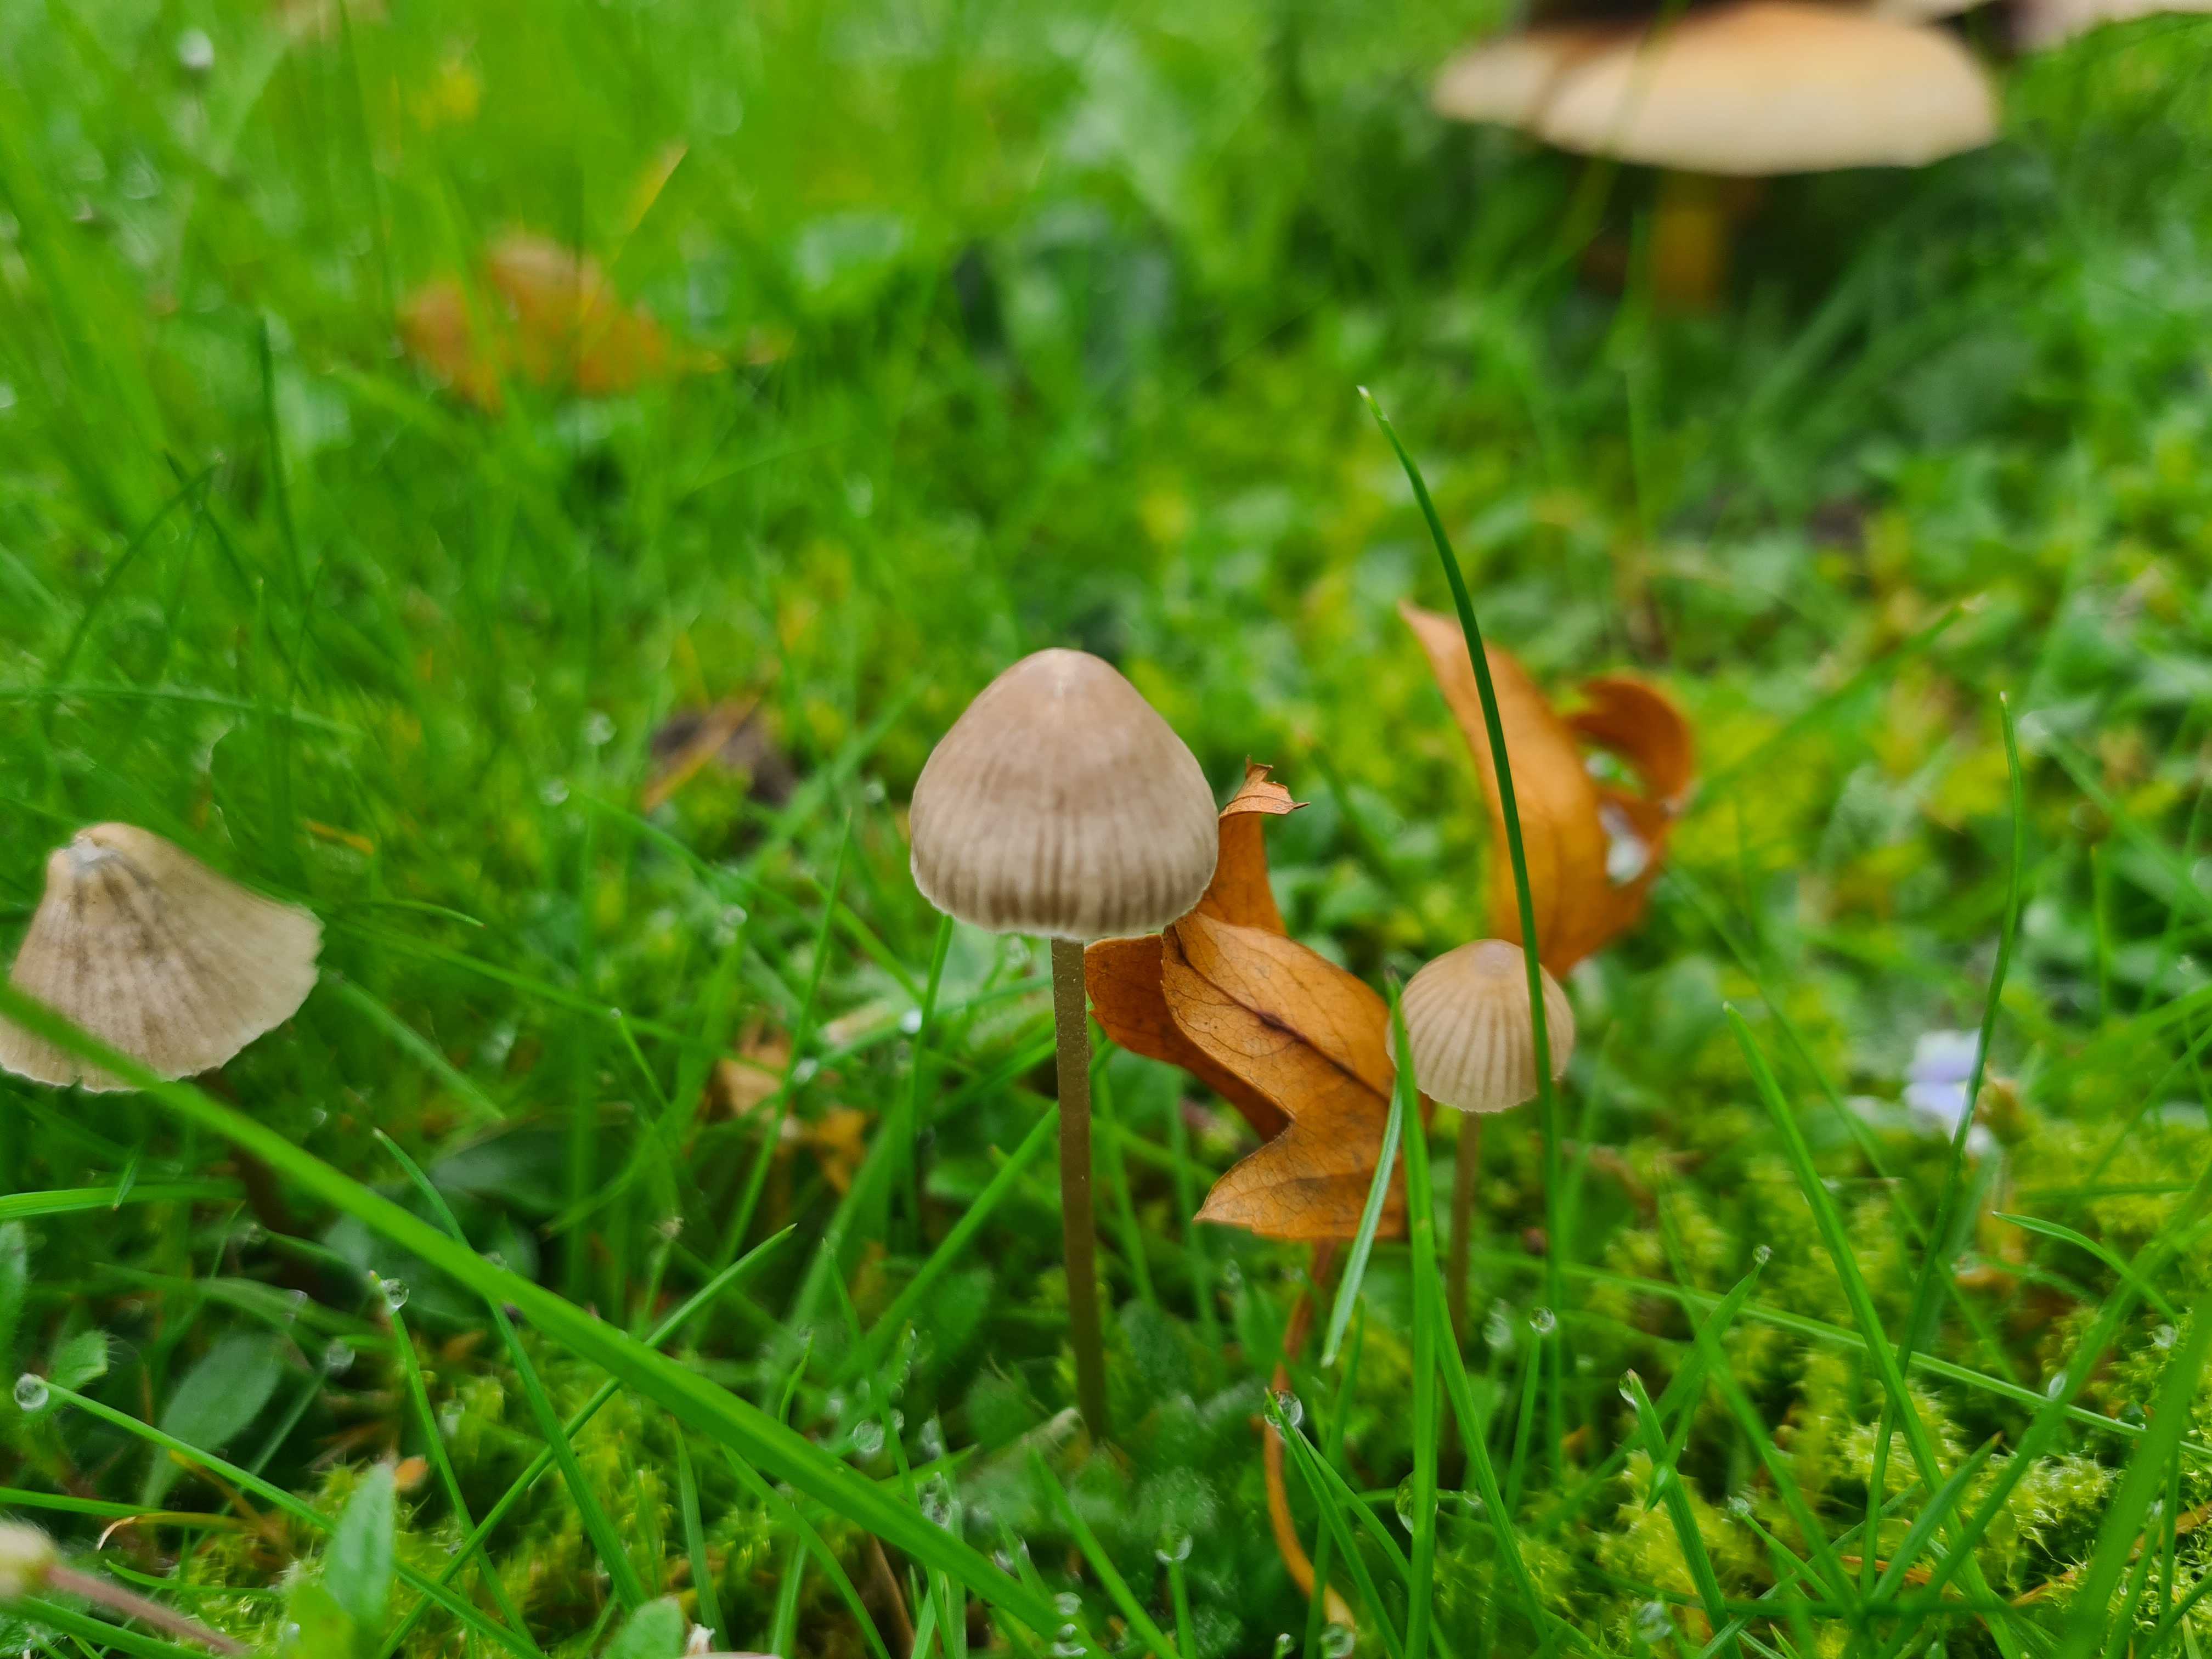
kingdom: Fungi
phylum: Basidiomycota
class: Agaricomycetes
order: Agaricales
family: Mycenaceae
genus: Mycena
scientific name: Mycena
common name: huesvamp
